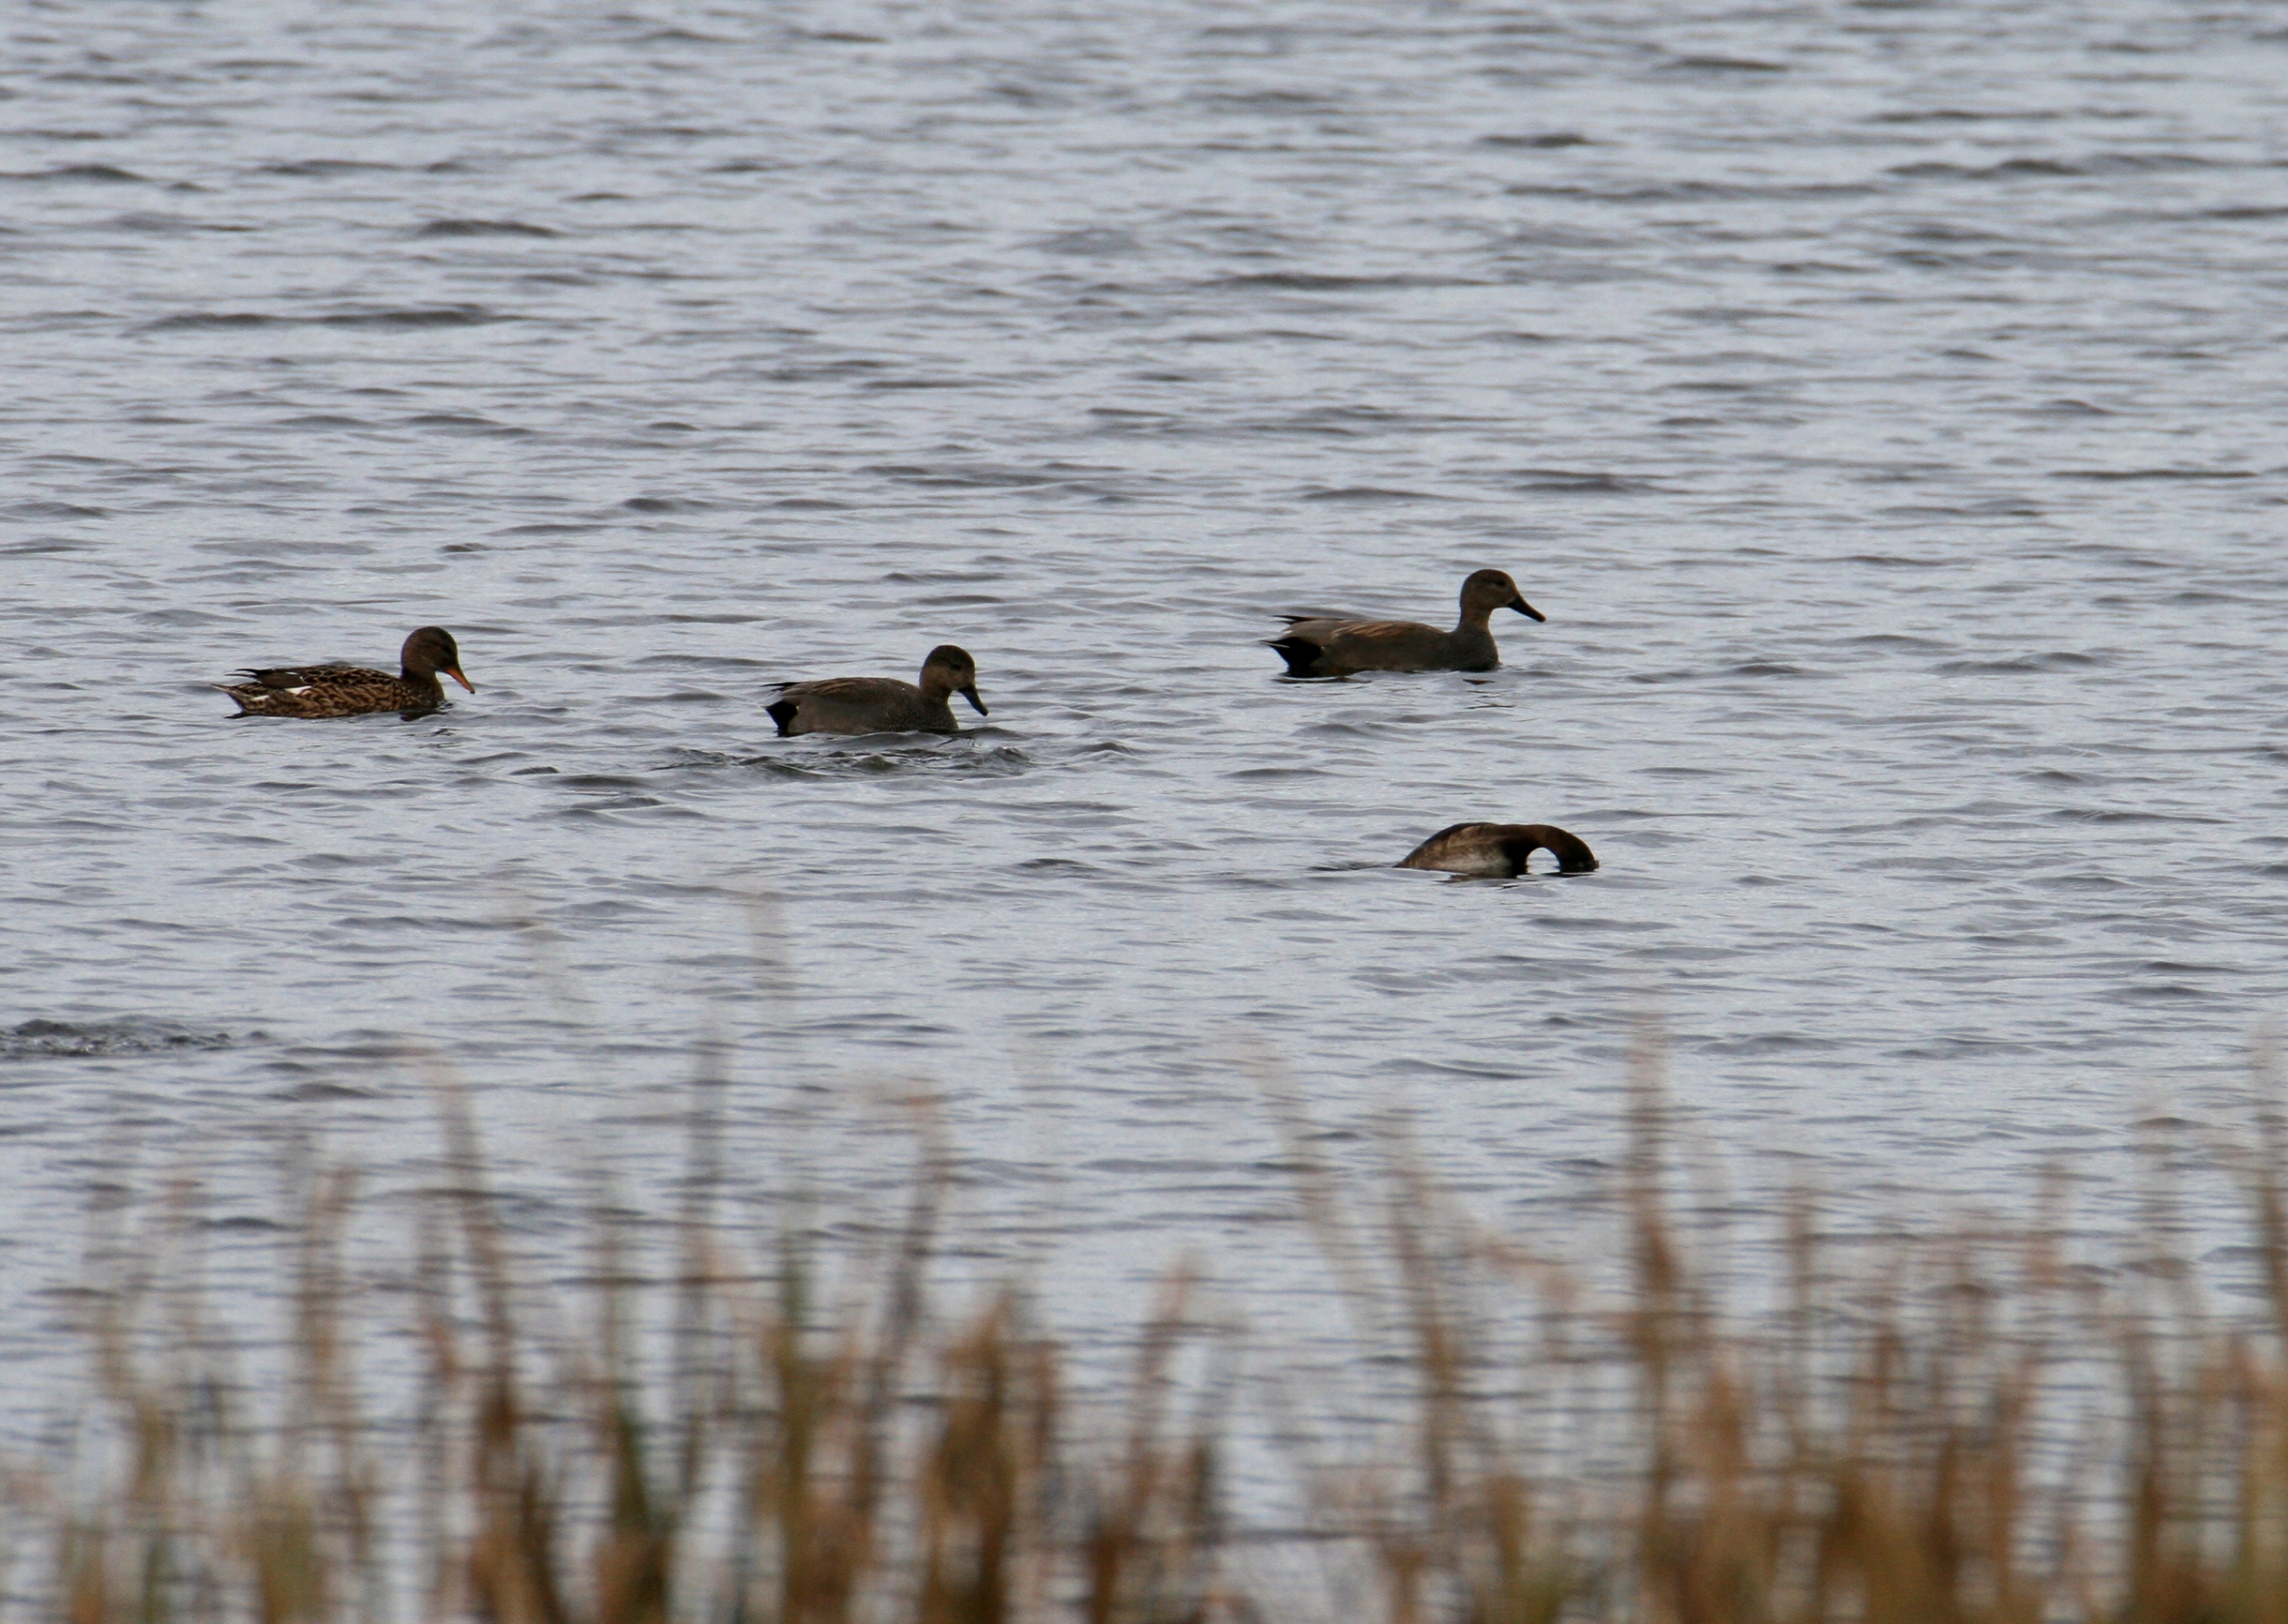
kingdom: Animalia
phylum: Chordata
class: Aves
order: Anseriformes
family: Anatidae
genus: Mareca
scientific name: Mareca strepera
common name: Knarand
